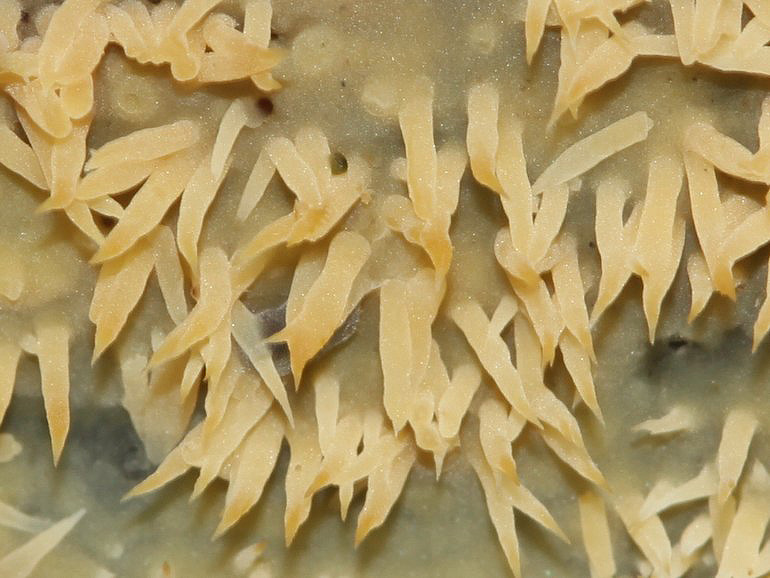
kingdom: Fungi
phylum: Basidiomycota
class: Agaricomycetes
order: Polyporales
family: Meruliaceae
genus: Mycoacia
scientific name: Mycoacia uda
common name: citrongul vokspig
